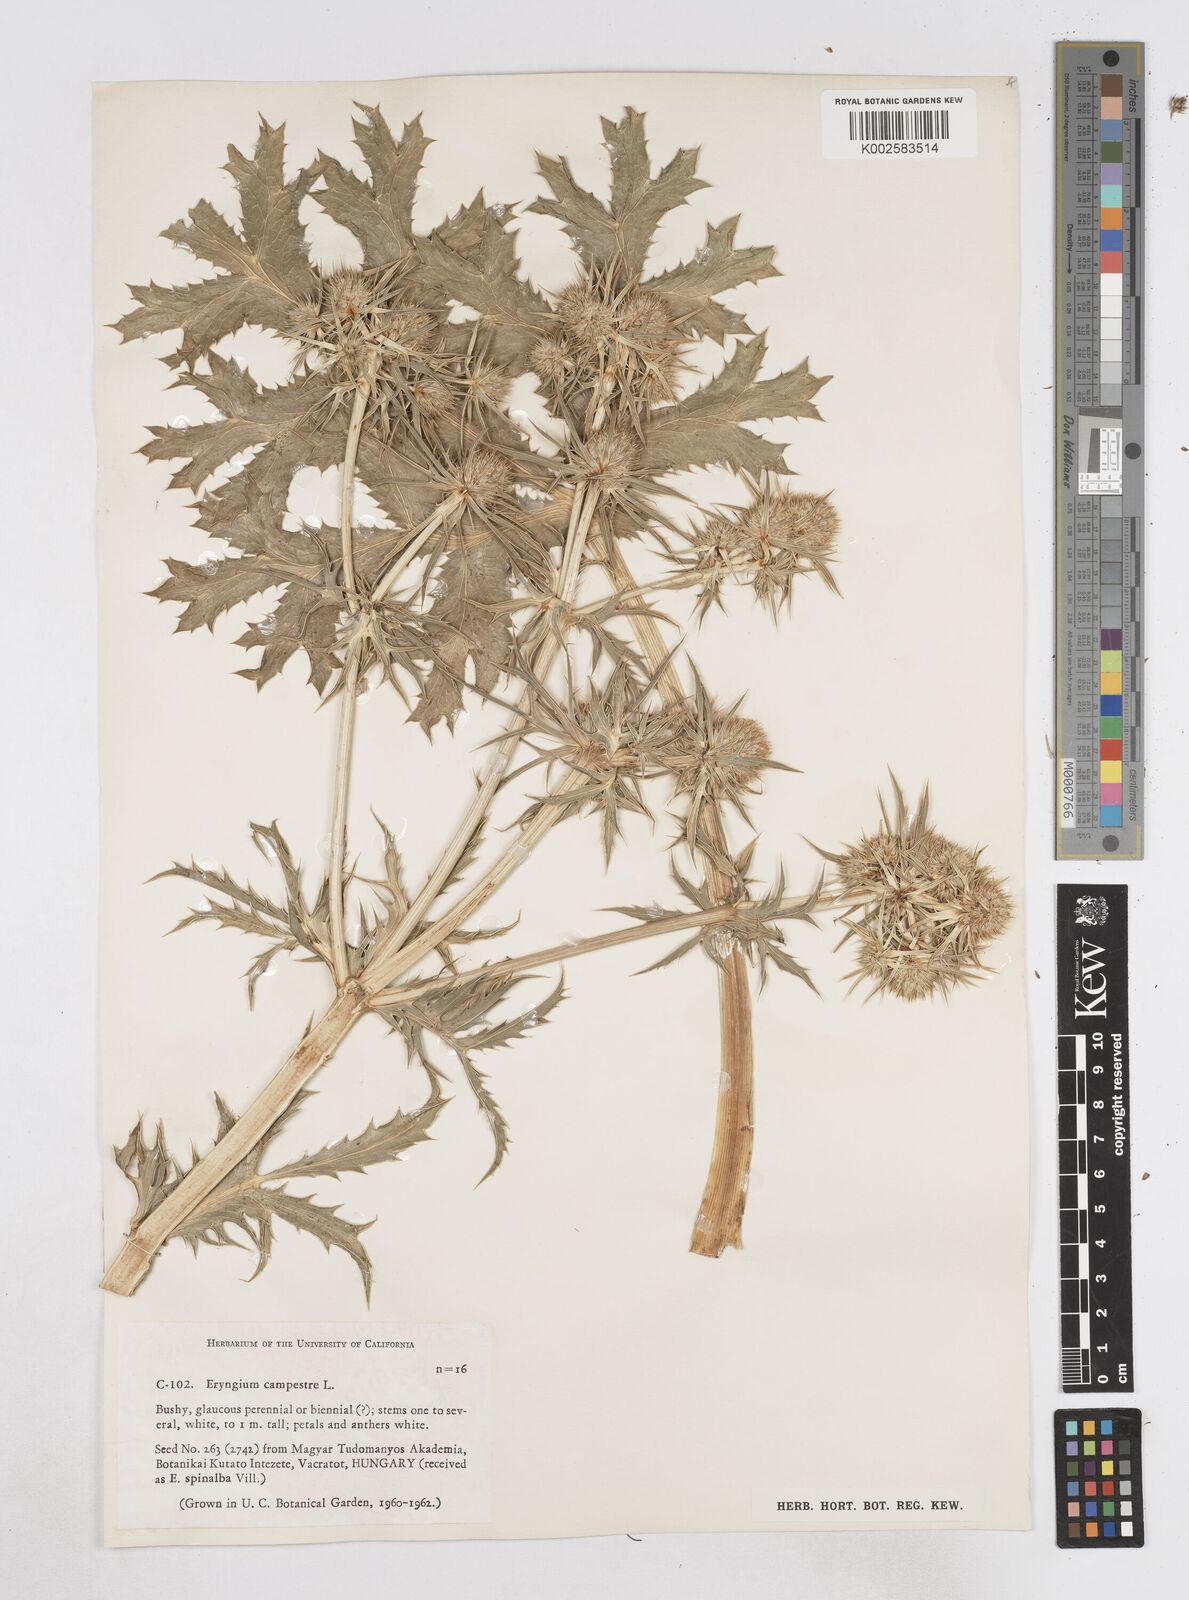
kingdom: Plantae
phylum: Tracheophyta
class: Magnoliopsida
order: Apiales
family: Apiaceae
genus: Eryngium
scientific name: Eryngium campestre
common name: Field eryngo
